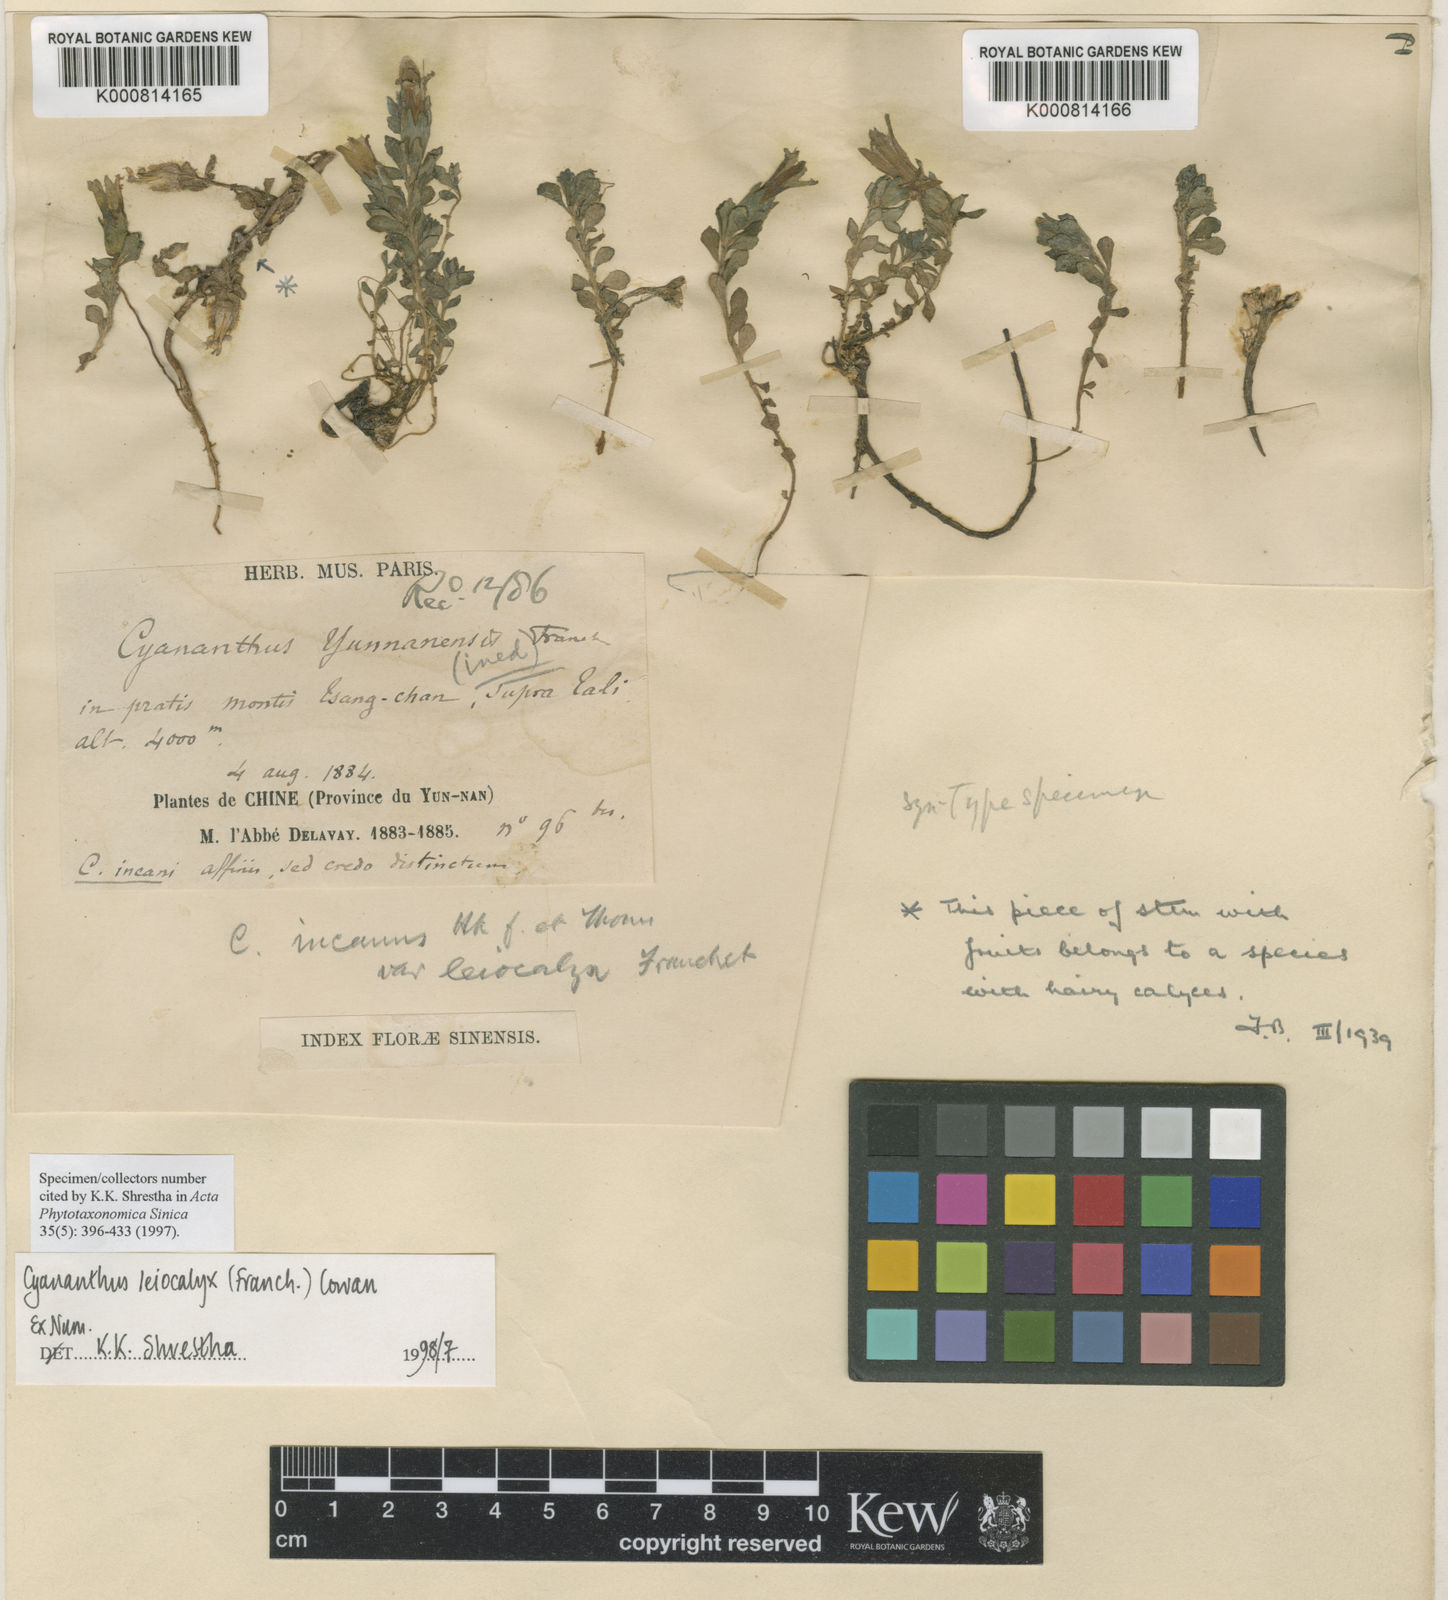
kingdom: Plantae
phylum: Tracheophyta
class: Magnoliopsida
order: Asterales
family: Campanulaceae
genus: Cyananthus
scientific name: Cyananthus macrocalyx
